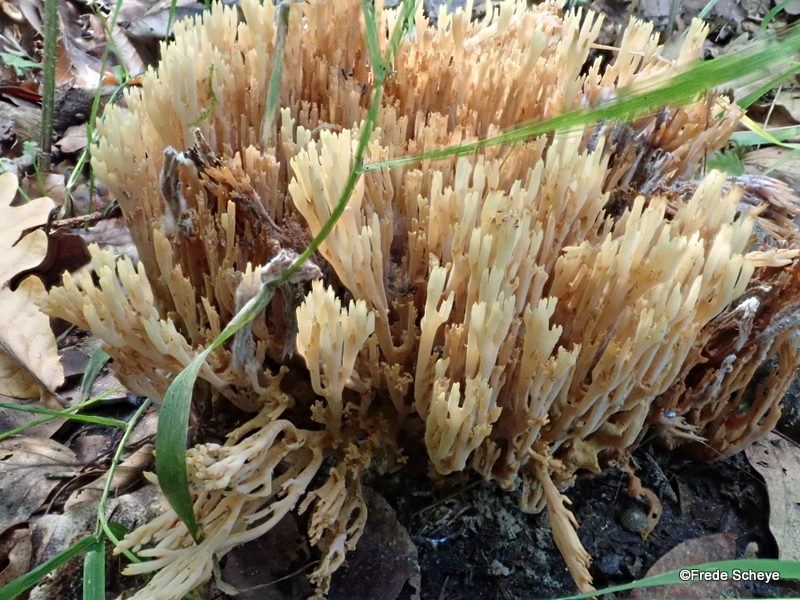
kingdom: Fungi
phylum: Basidiomycota
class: Agaricomycetes
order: Gomphales
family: Gomphaceae
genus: Ramaria
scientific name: Ramaria stricta
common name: rank koralsvamp
